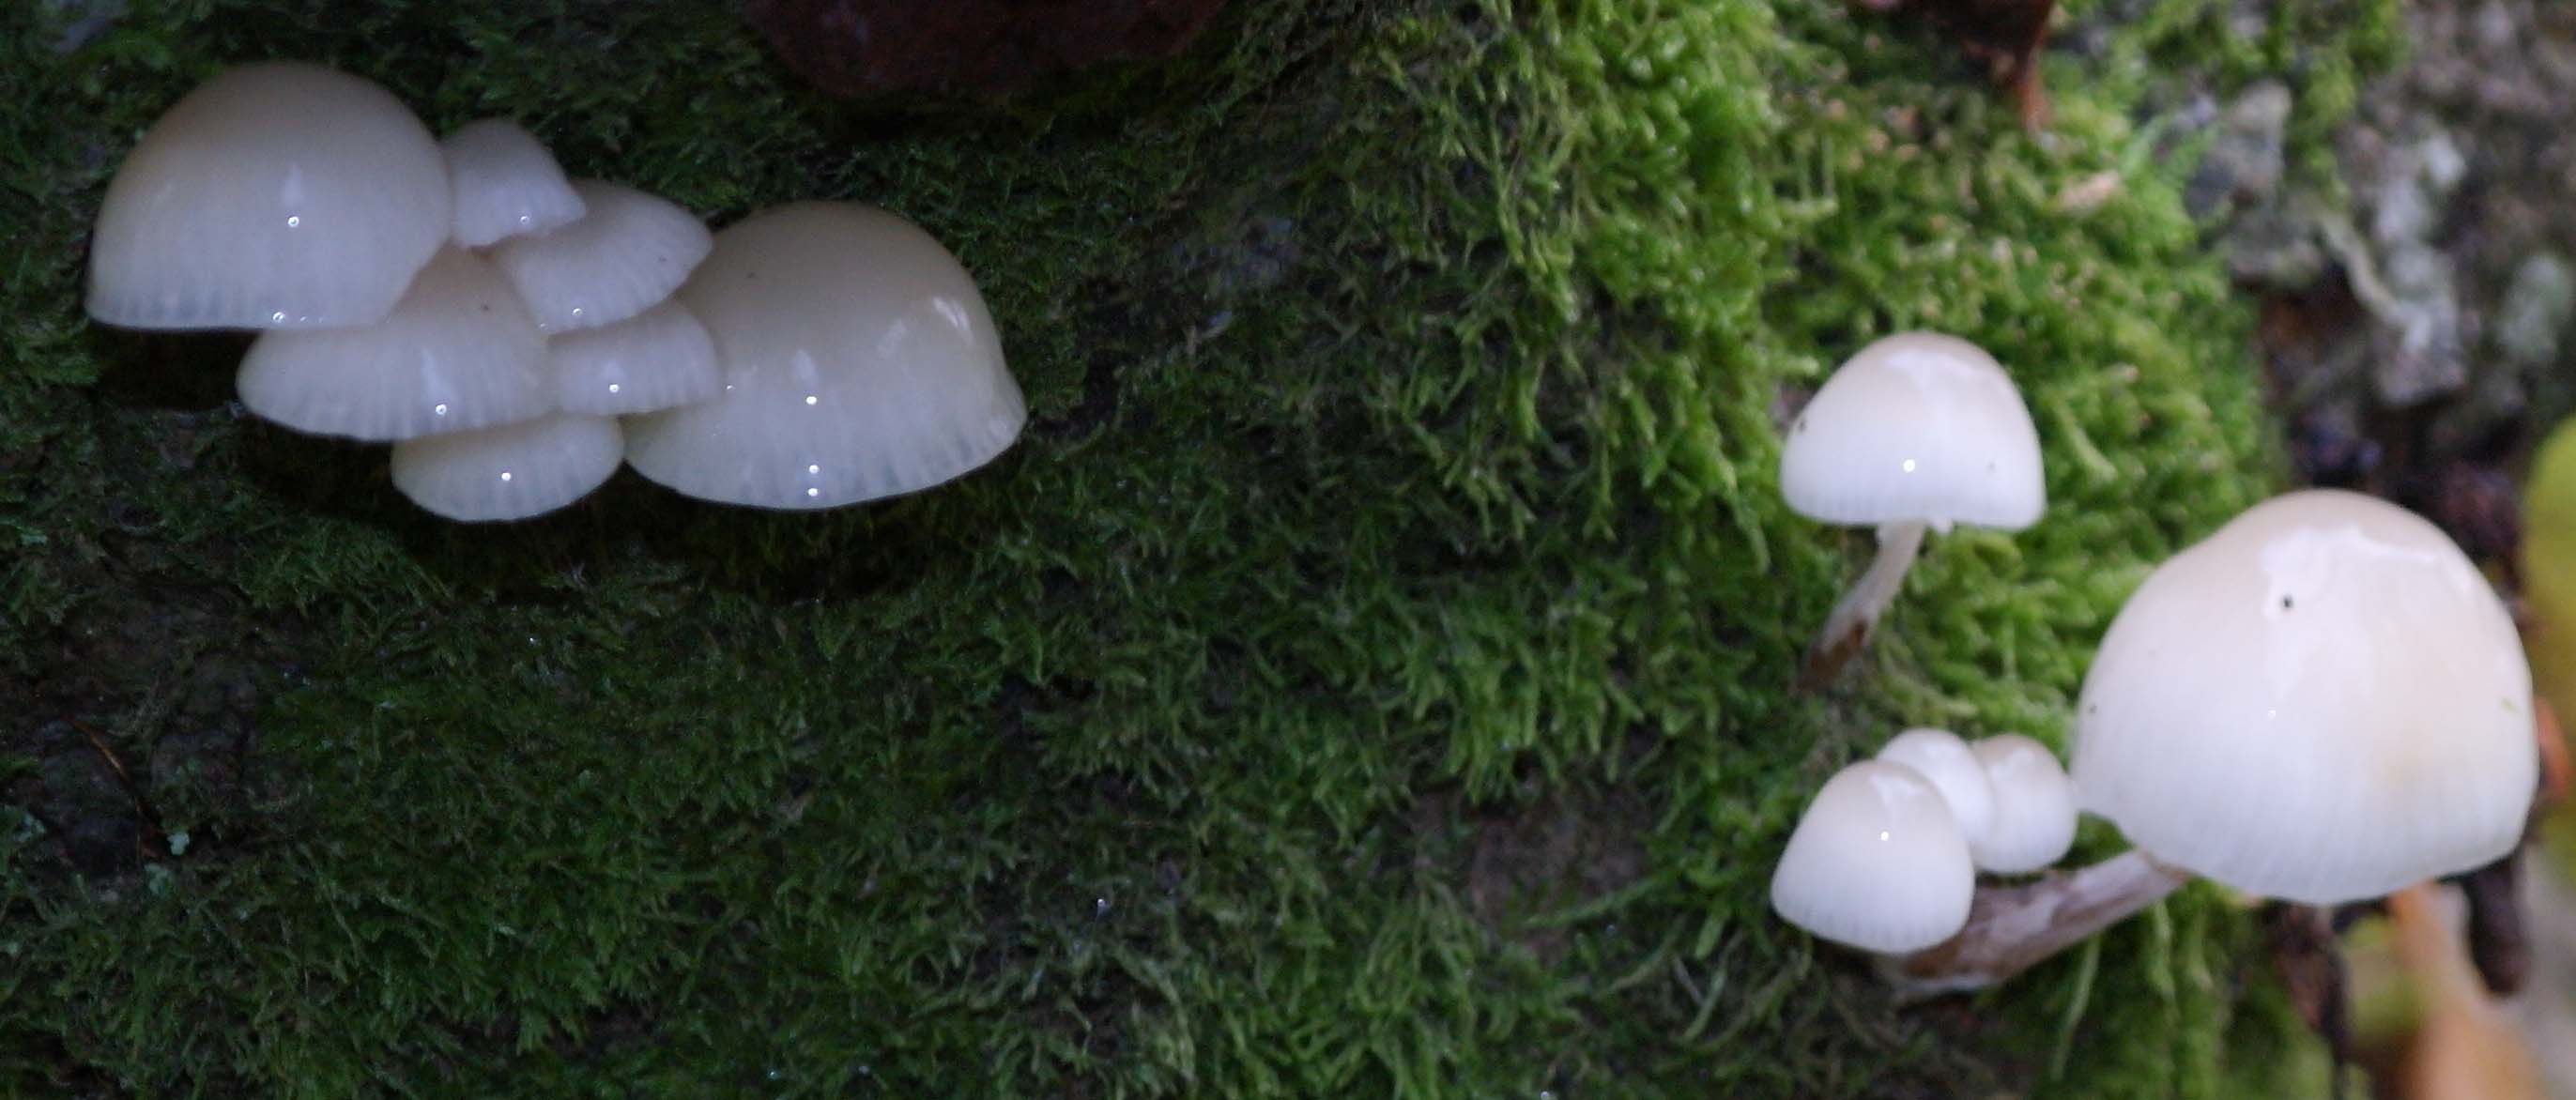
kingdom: Fungi
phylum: Basidiomycota
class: Agaricomycetes
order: Agaricales
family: Physalacriaceae
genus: Mucidula
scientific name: Mucidula mucida
